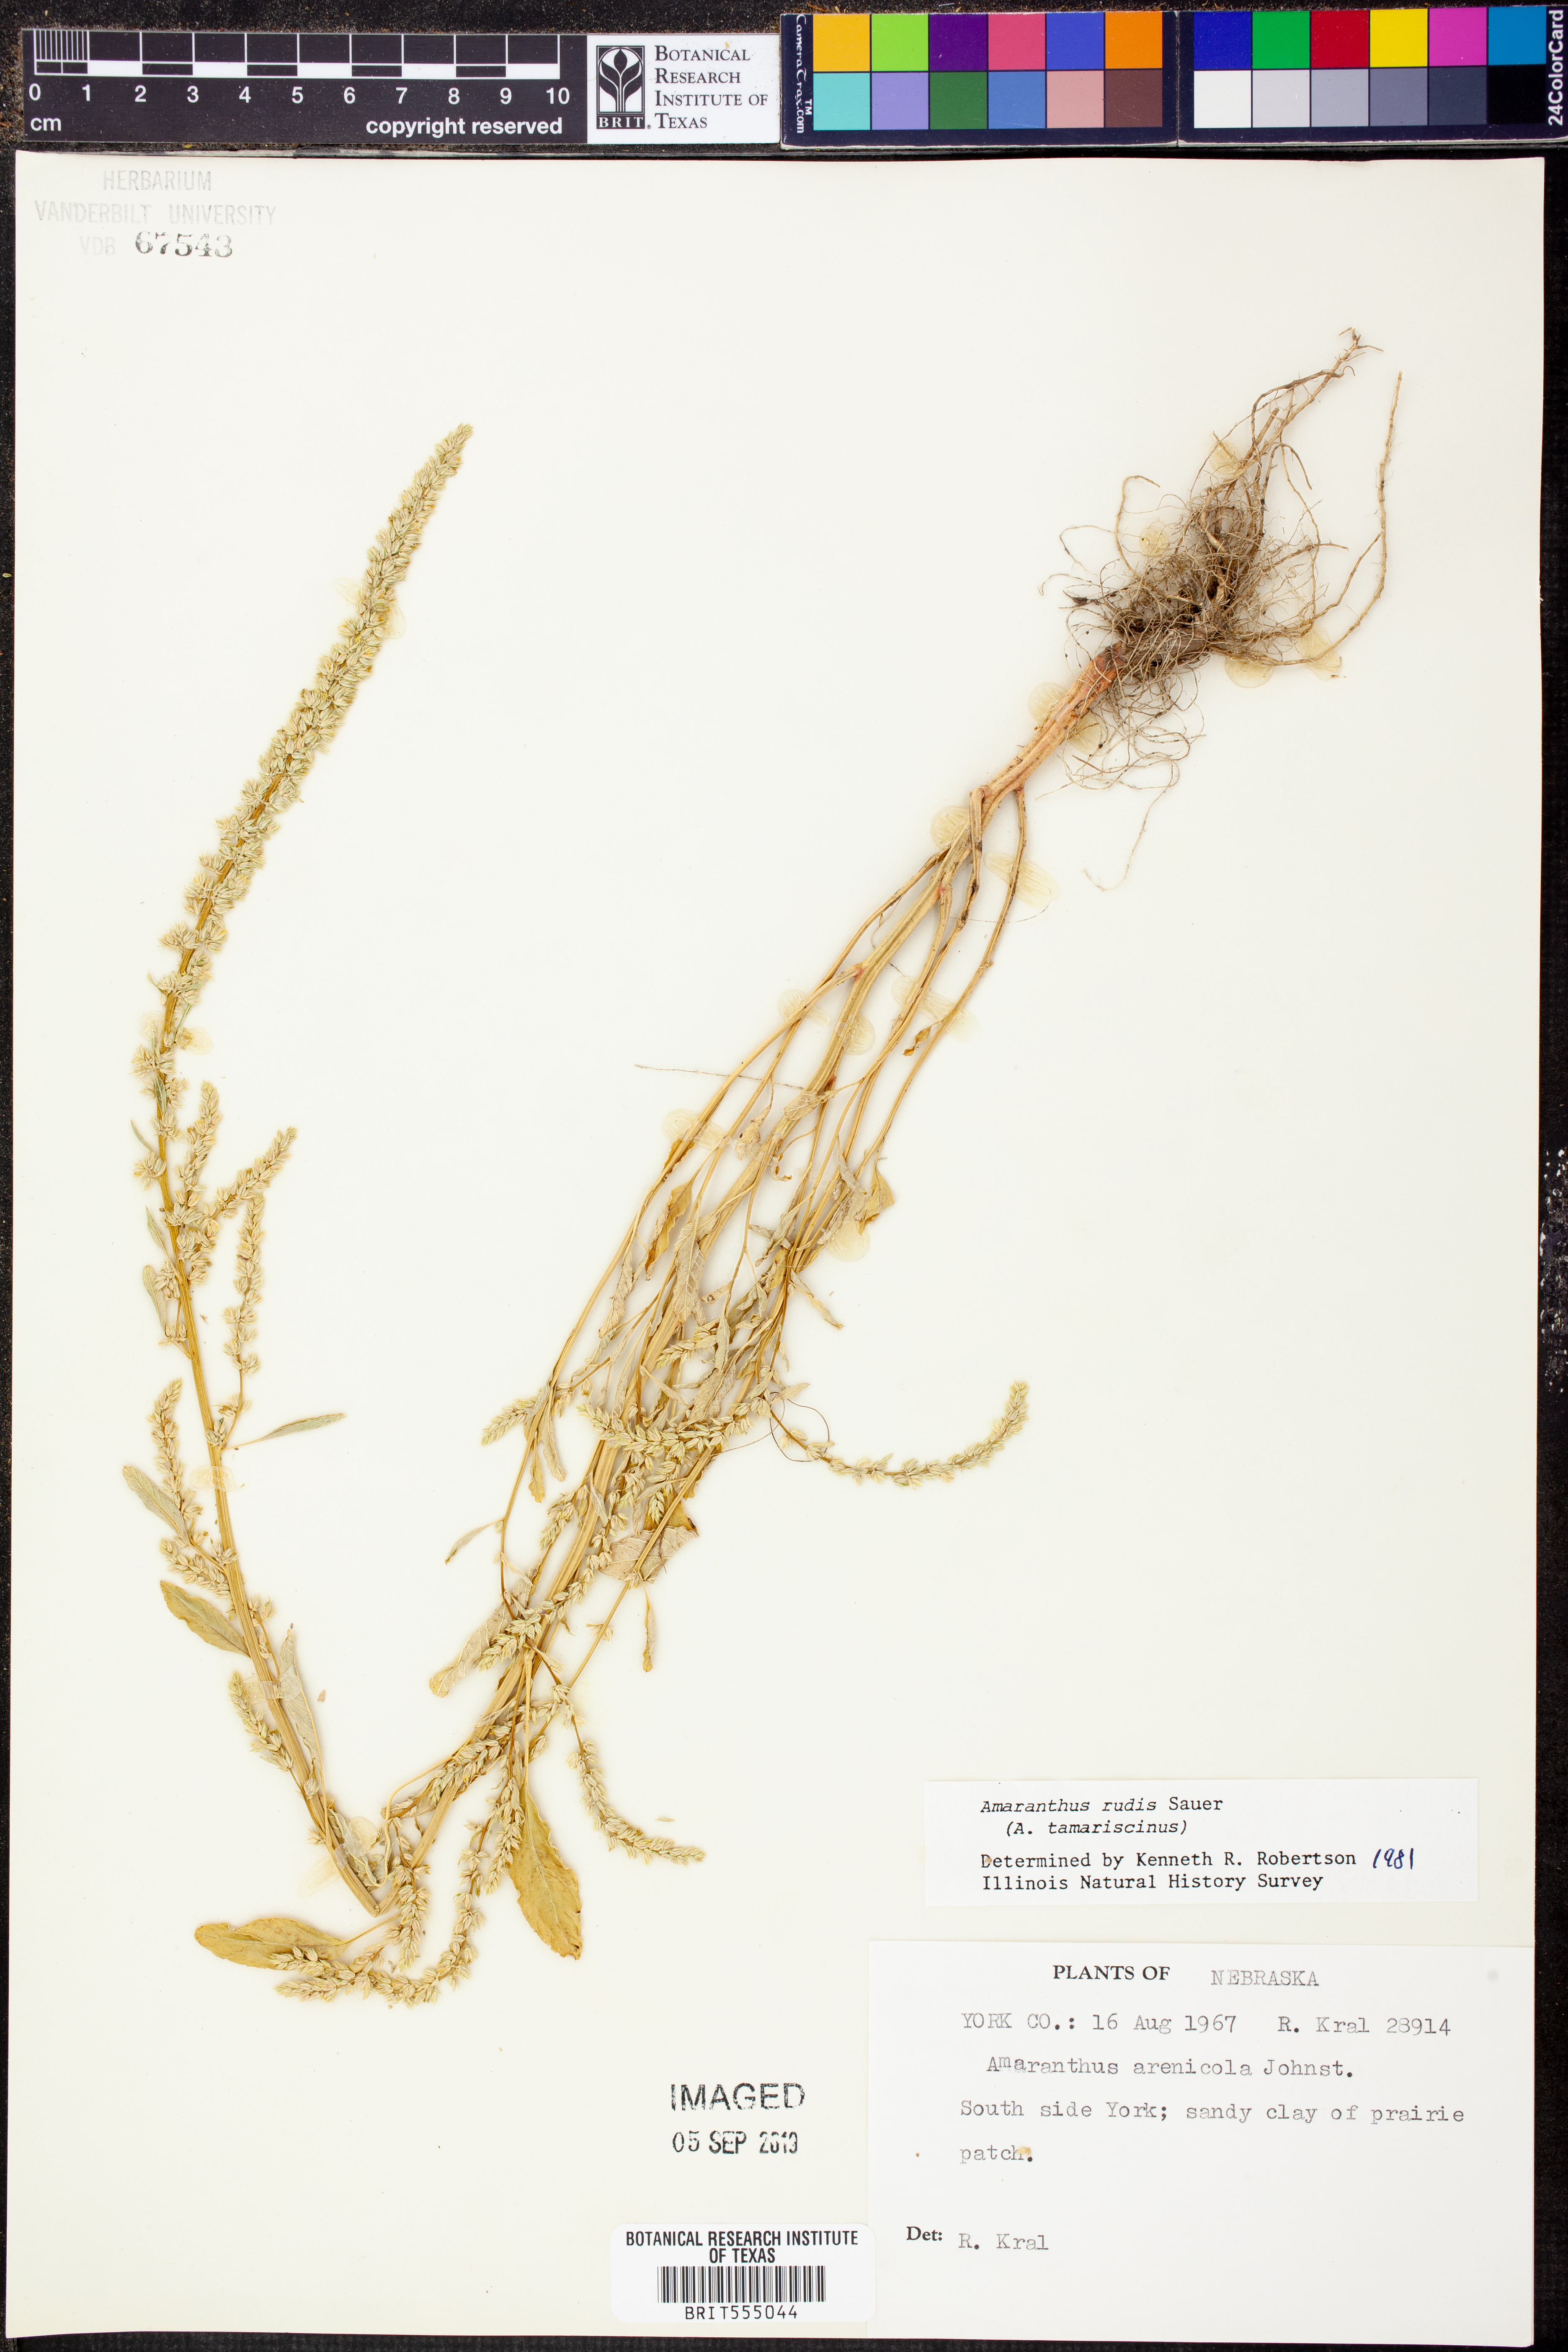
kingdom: Plantae
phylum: Tracheophyta
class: Magnoliopsida
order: Caryophyllales
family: Amaranthaceae
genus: Amaranthus
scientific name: Amaranthus tuberculatus
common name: Rough-fruit amaranth
